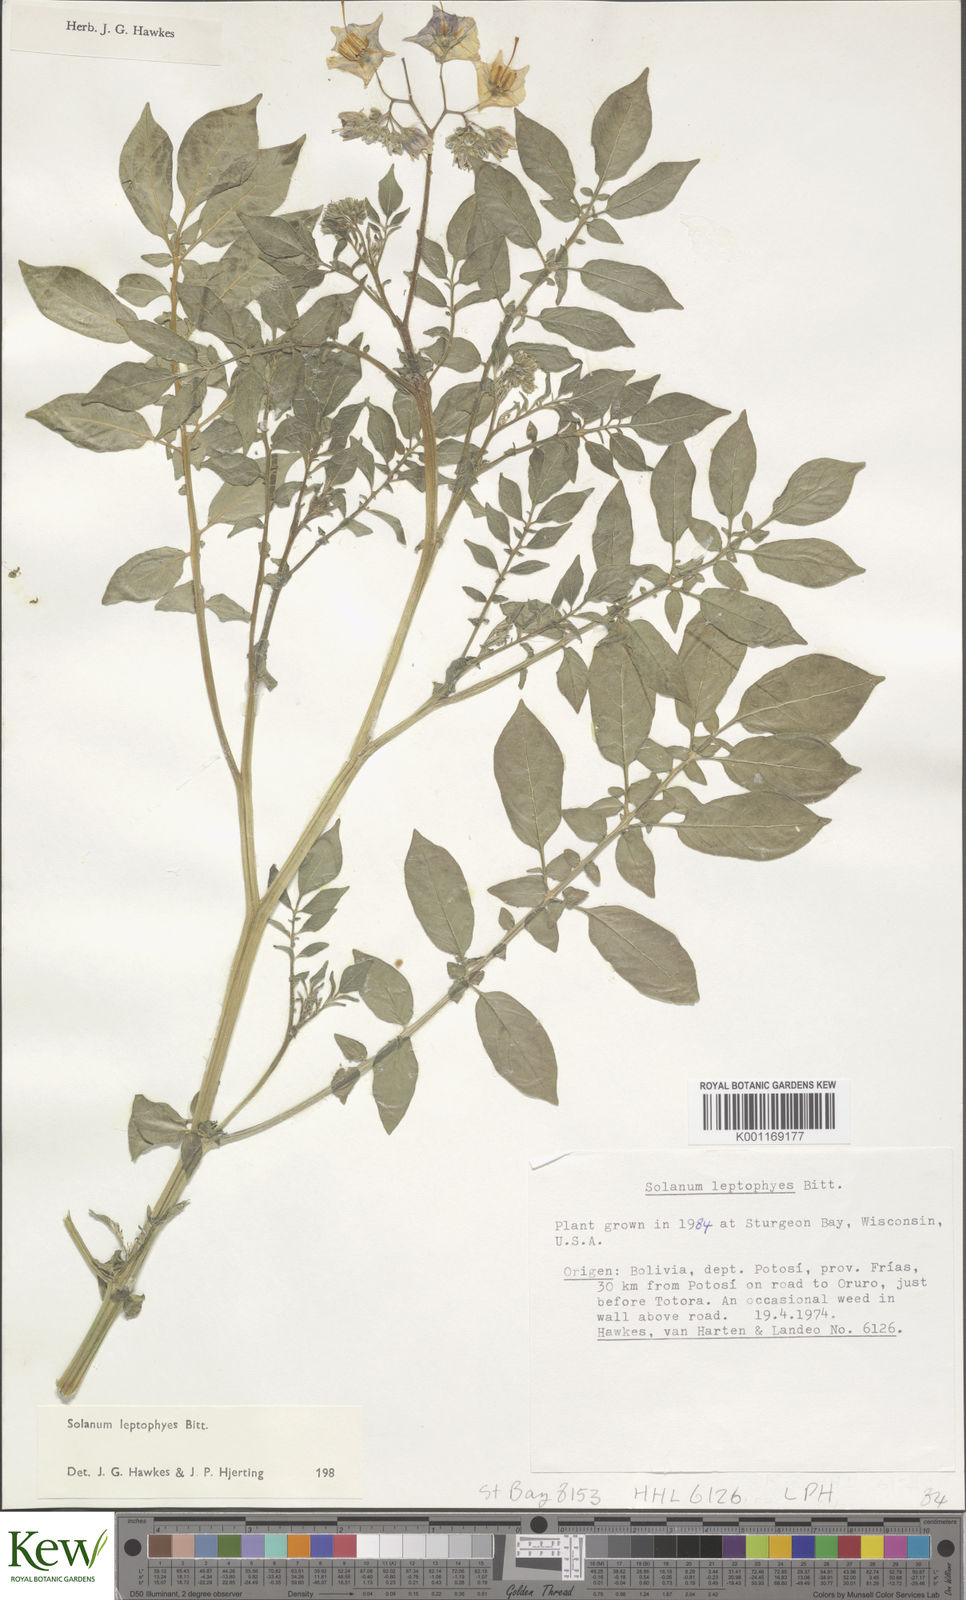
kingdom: Plantae
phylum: Tracheophyta
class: Magnoliopsida
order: Solanales
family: Solanaceae
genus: Solanum
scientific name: Solanum brevicaule
